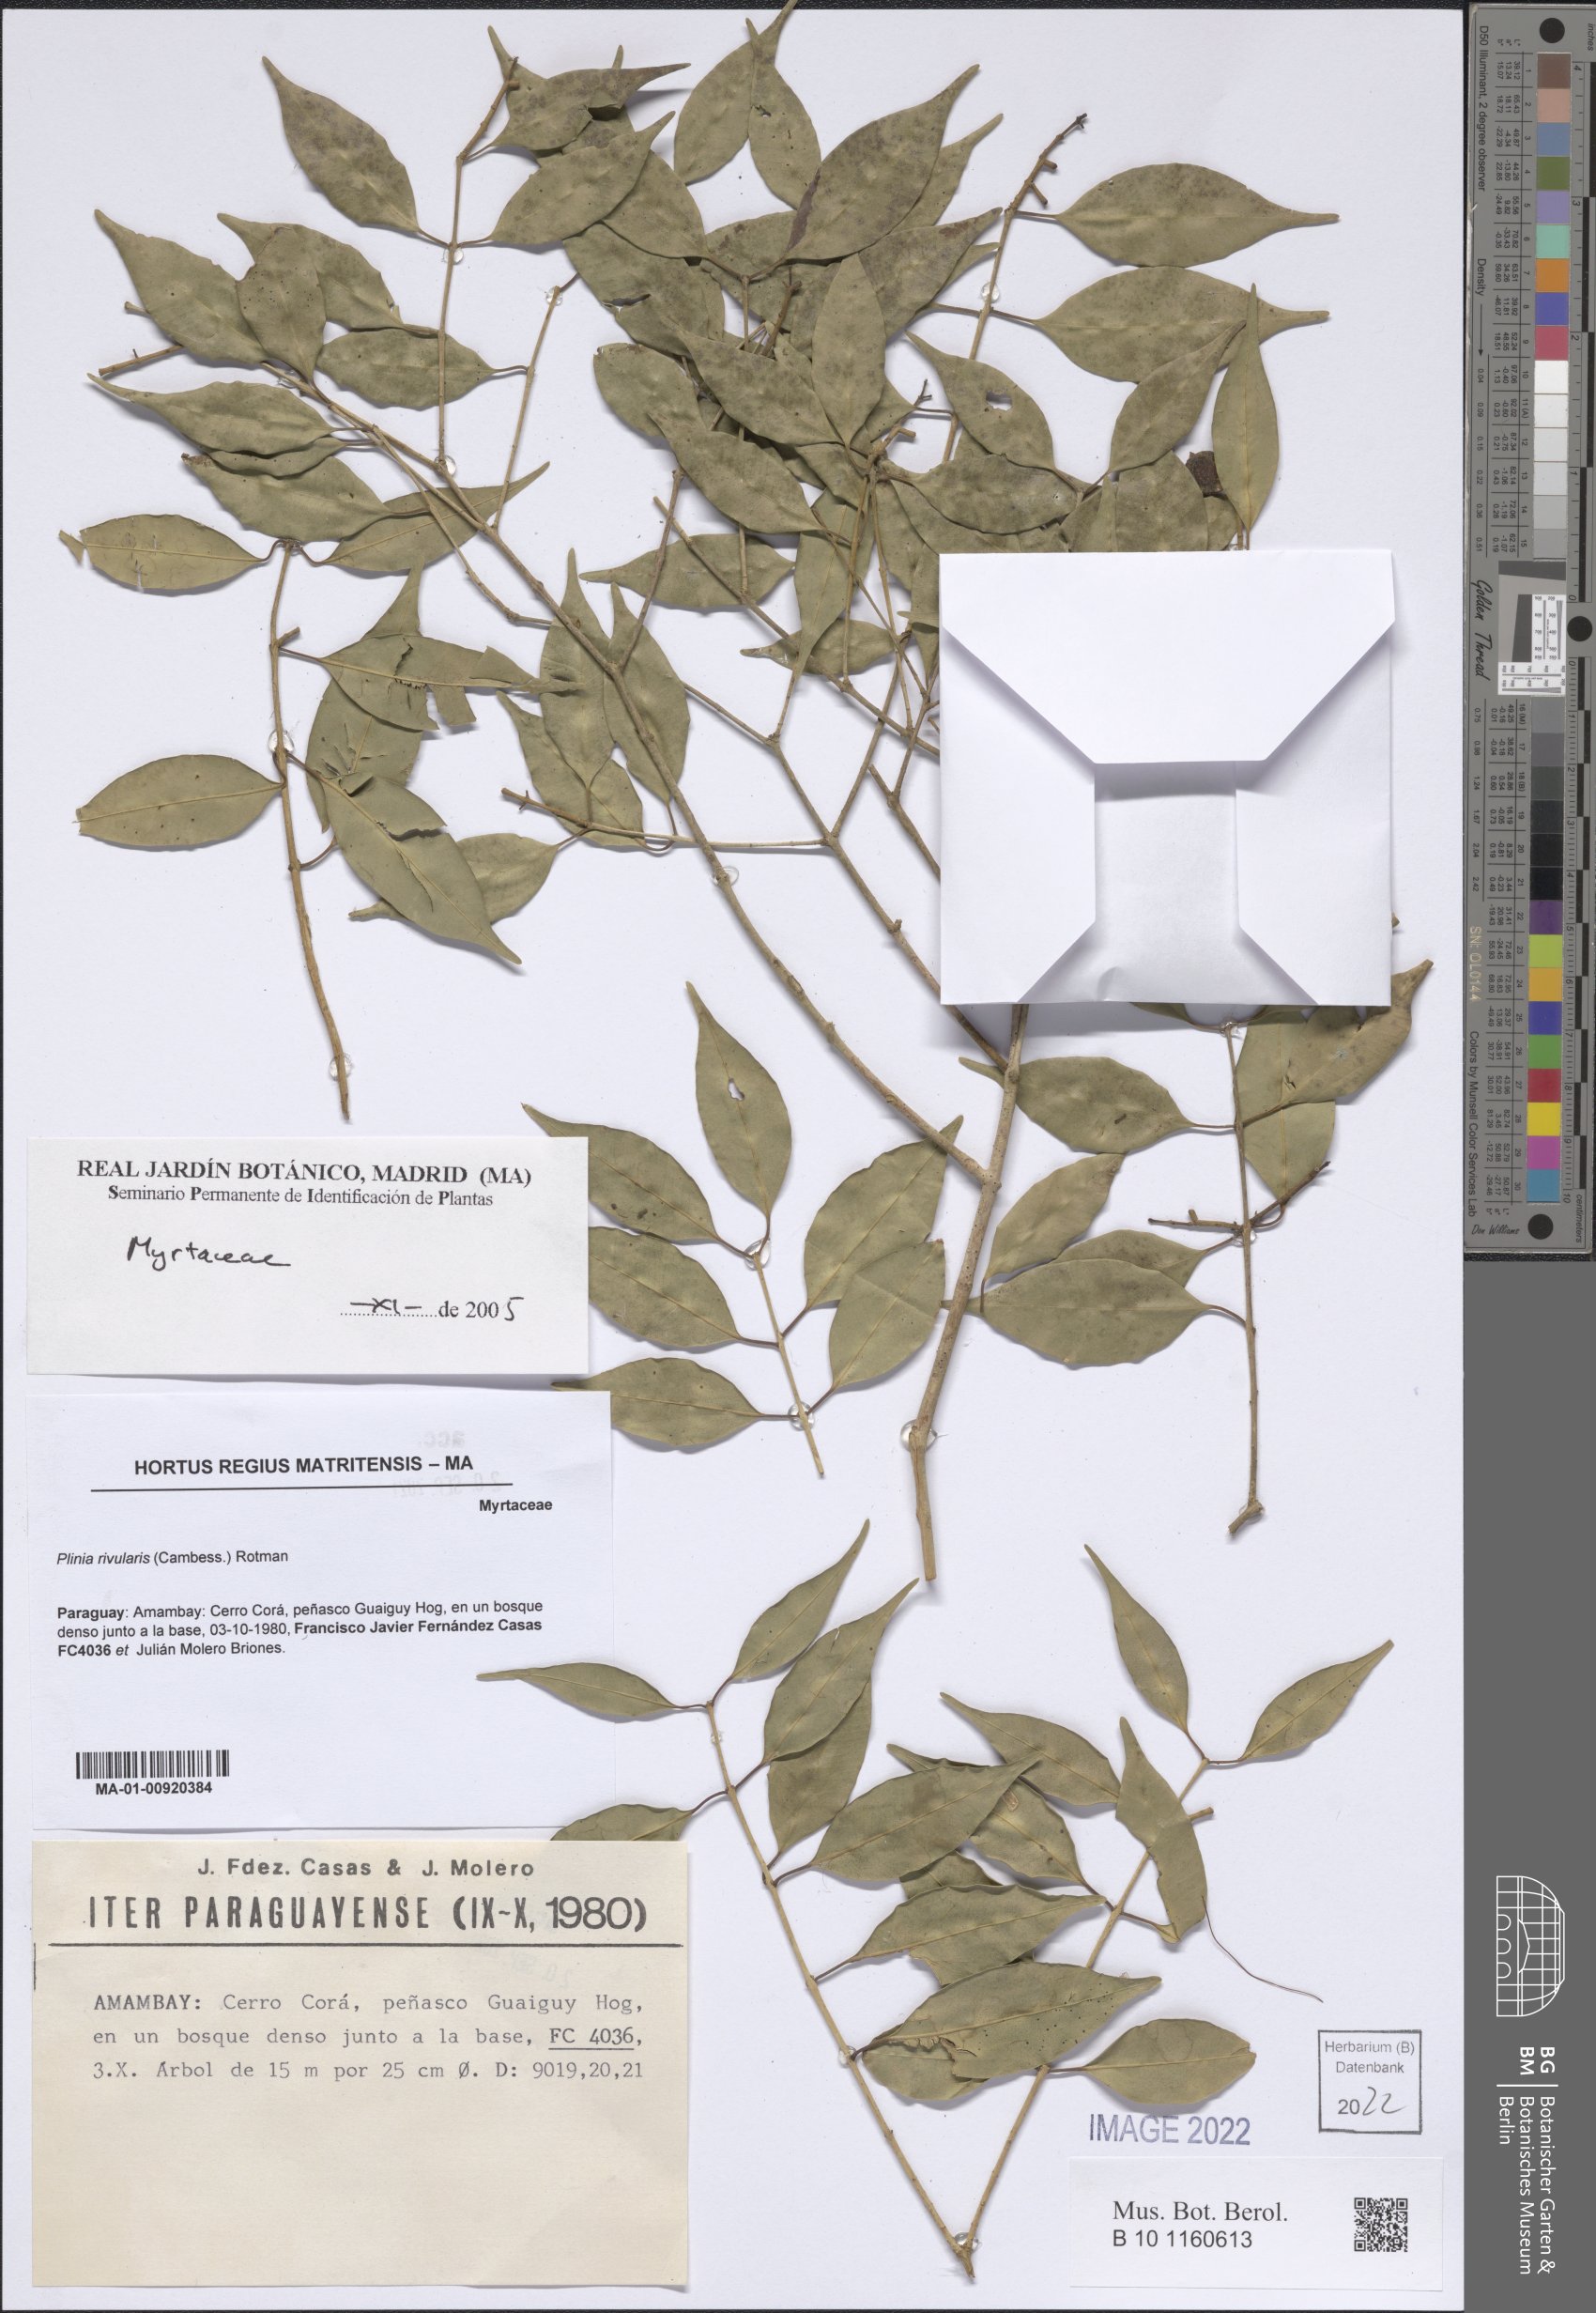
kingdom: Plantae
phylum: Tracheophyta
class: Magnoliopsida
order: Myrtales
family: Myrtaceae
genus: Plinia
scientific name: Plinia rivularis
